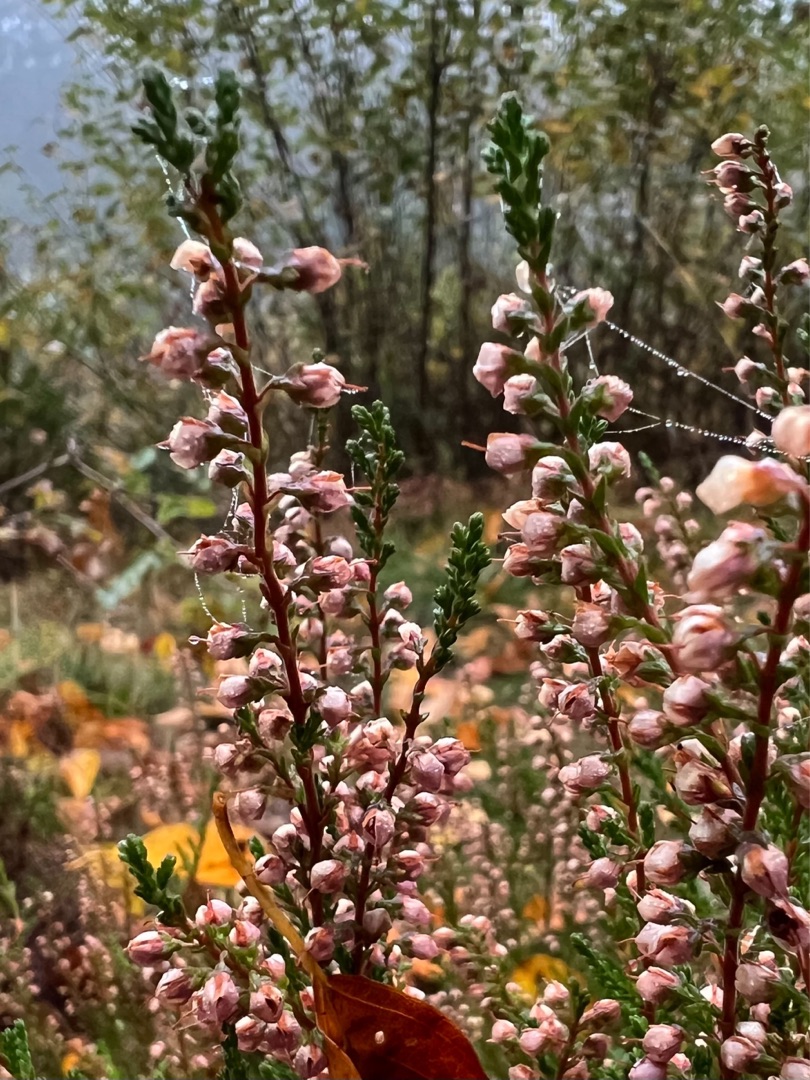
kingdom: Plantae
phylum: Tracheophyta
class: Magnoliopsida
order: Ericales
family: Ericaceae
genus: Calluna
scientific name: Calluna vulgaris
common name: Hedelyng
